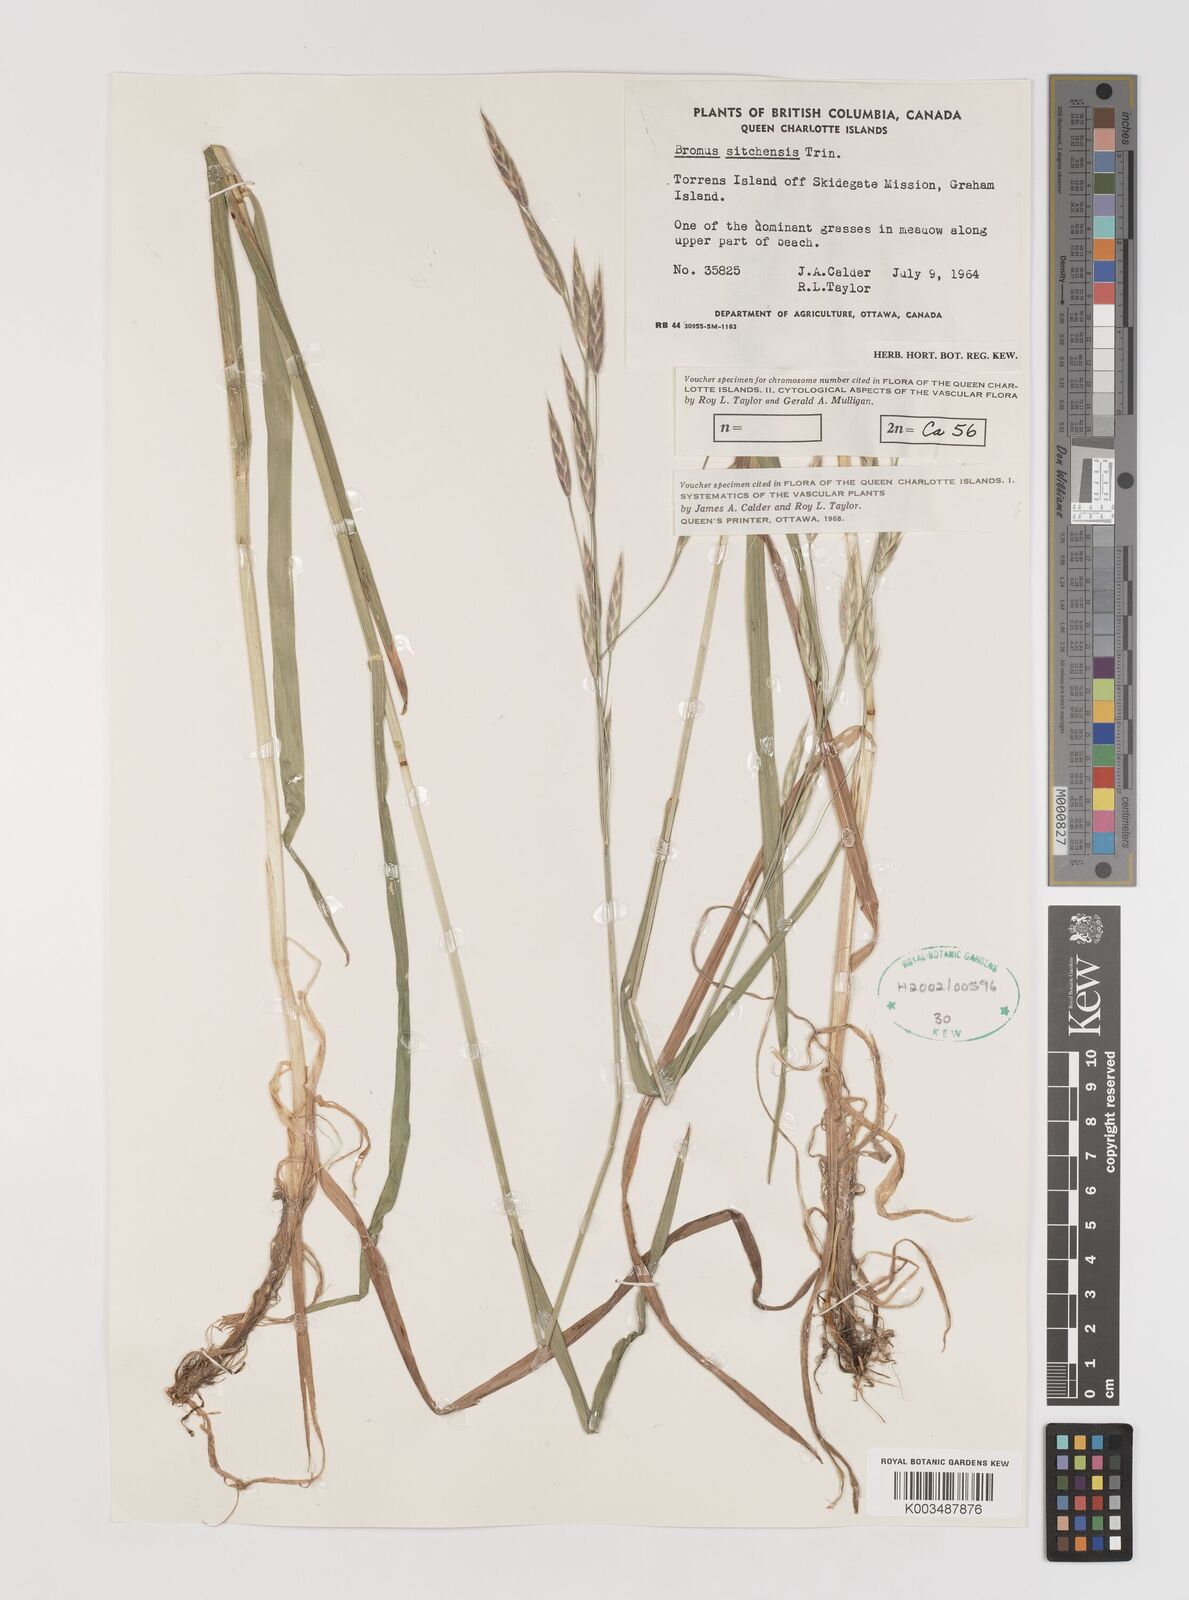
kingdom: Plantae
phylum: Tracheophyta
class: Liliopsida
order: Poales
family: Poaceae
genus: Bromus
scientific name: Bromus sitchensis
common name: Sitka brome
